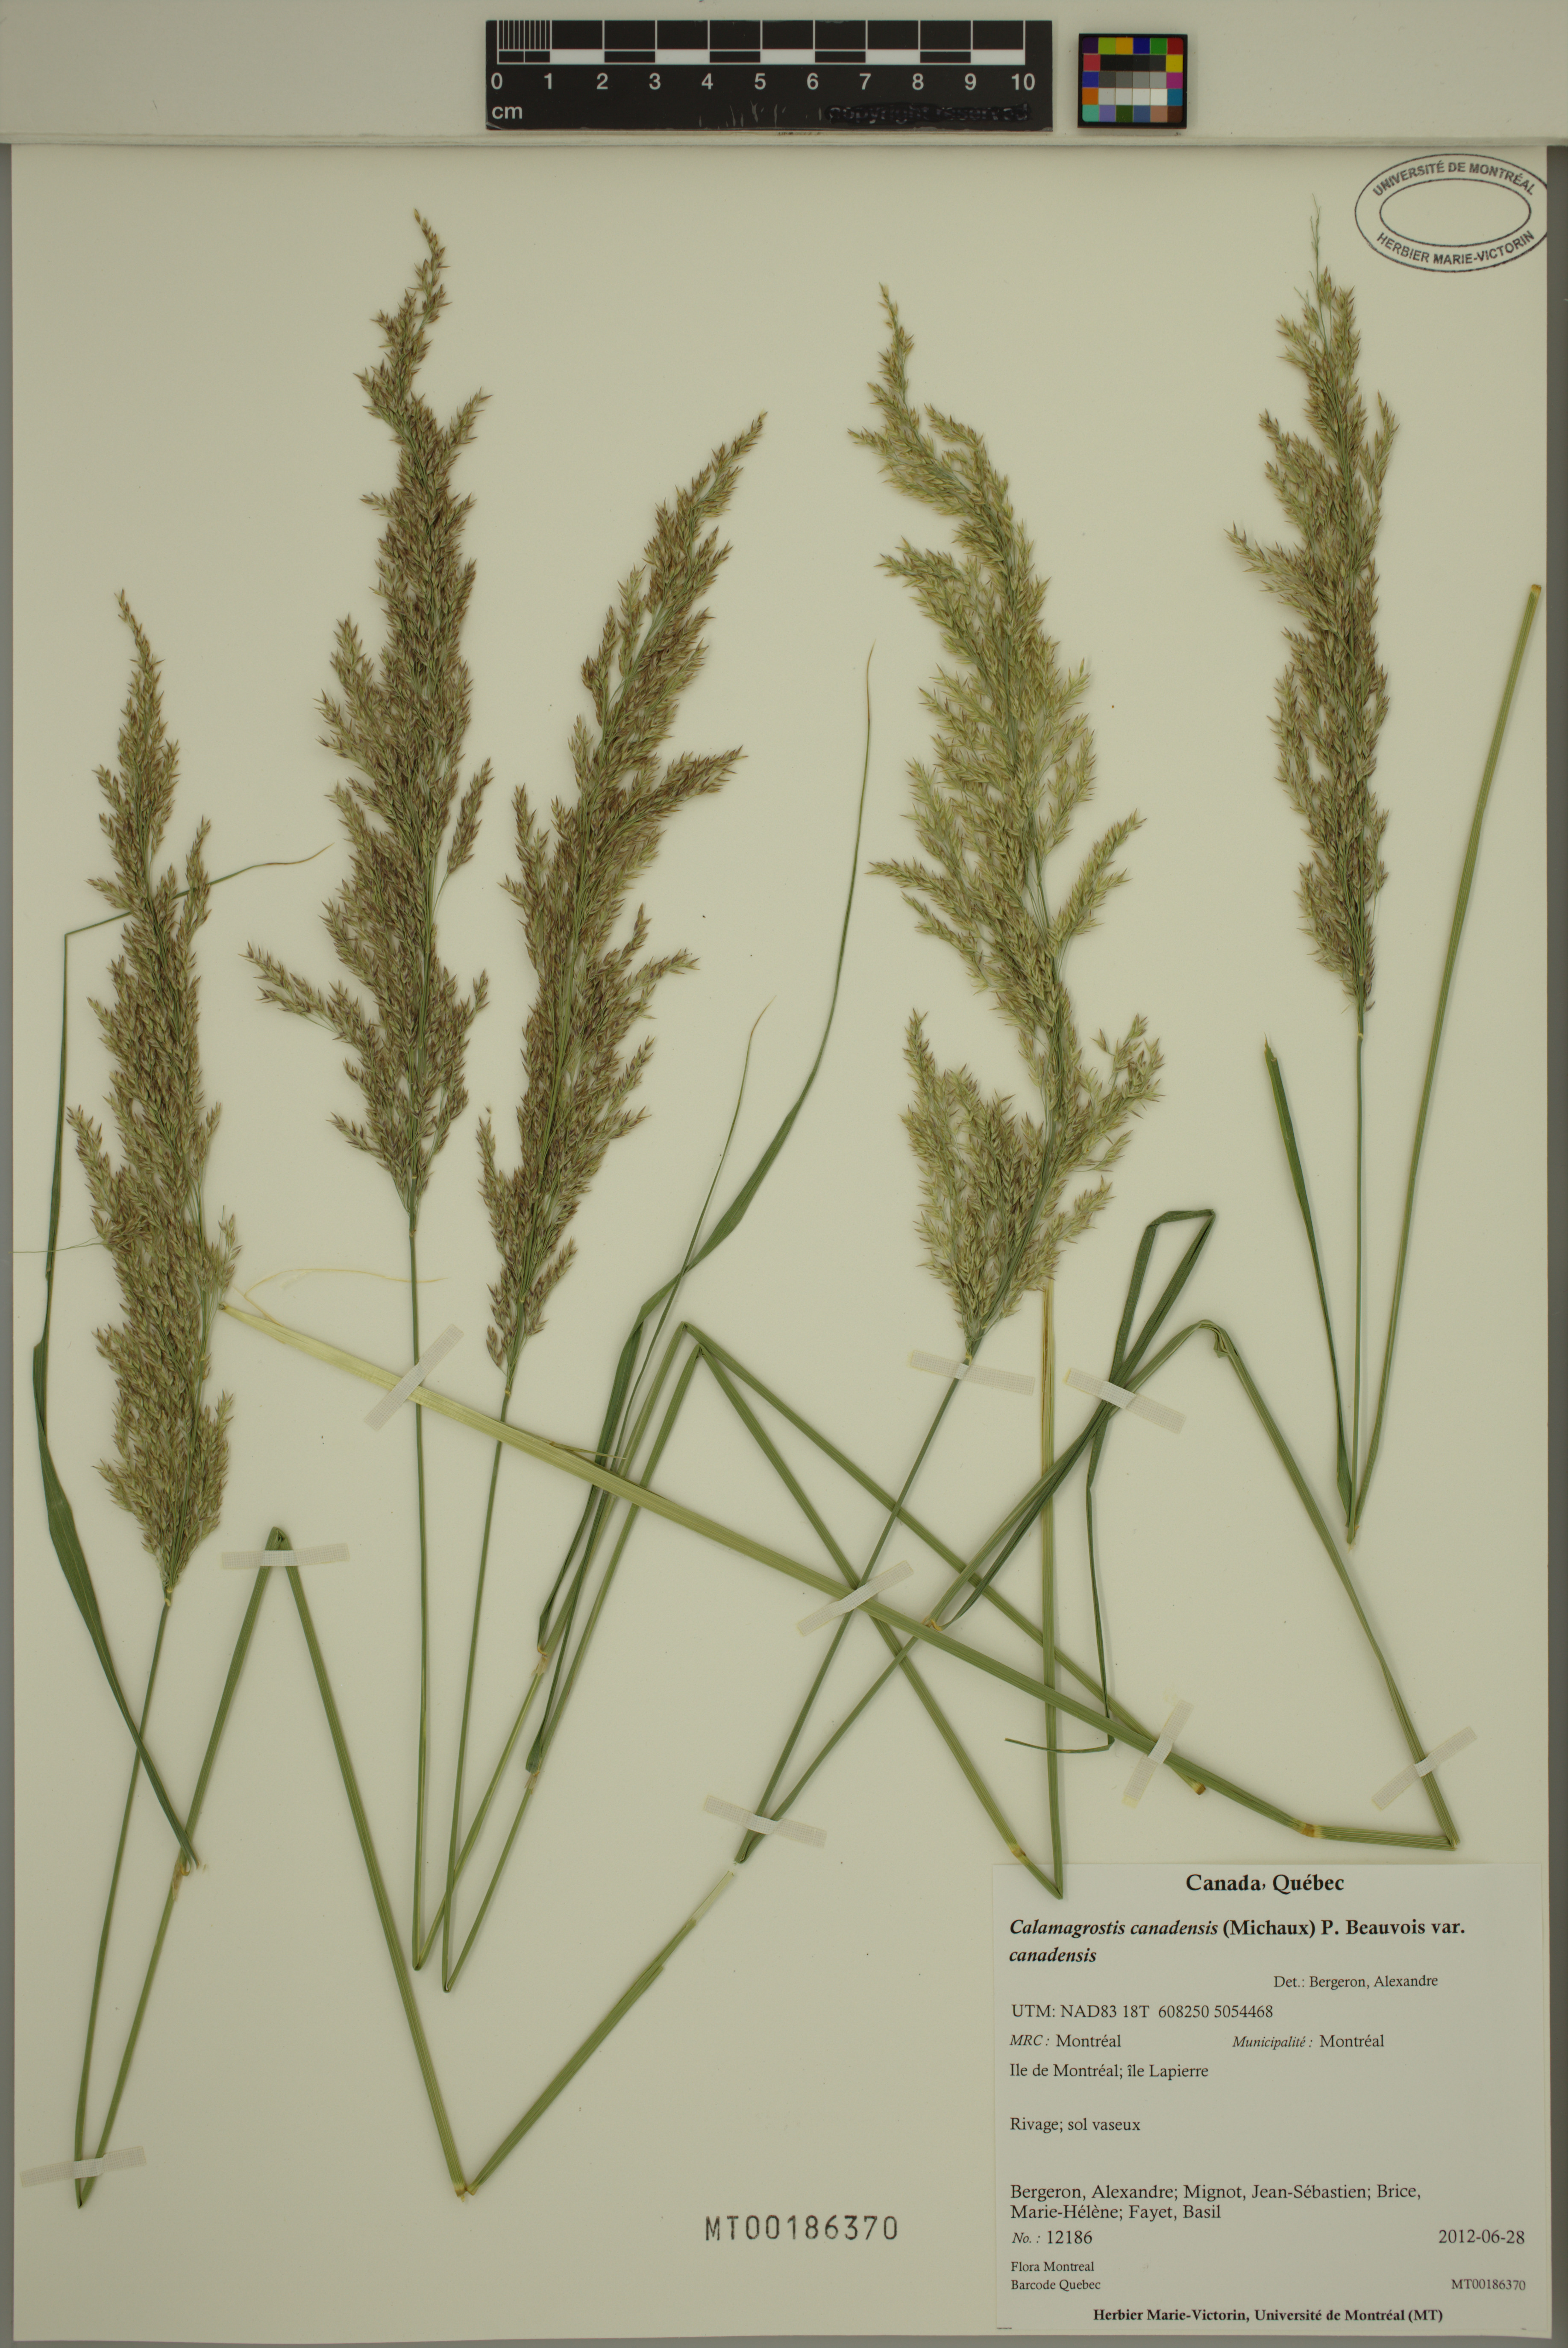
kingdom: Plantae
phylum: Tracheophyta
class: Liliopsida
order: Poales
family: Poaceae
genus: Calamagrostis
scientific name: Calamagrostis canadensis
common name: Canada bluejoint
